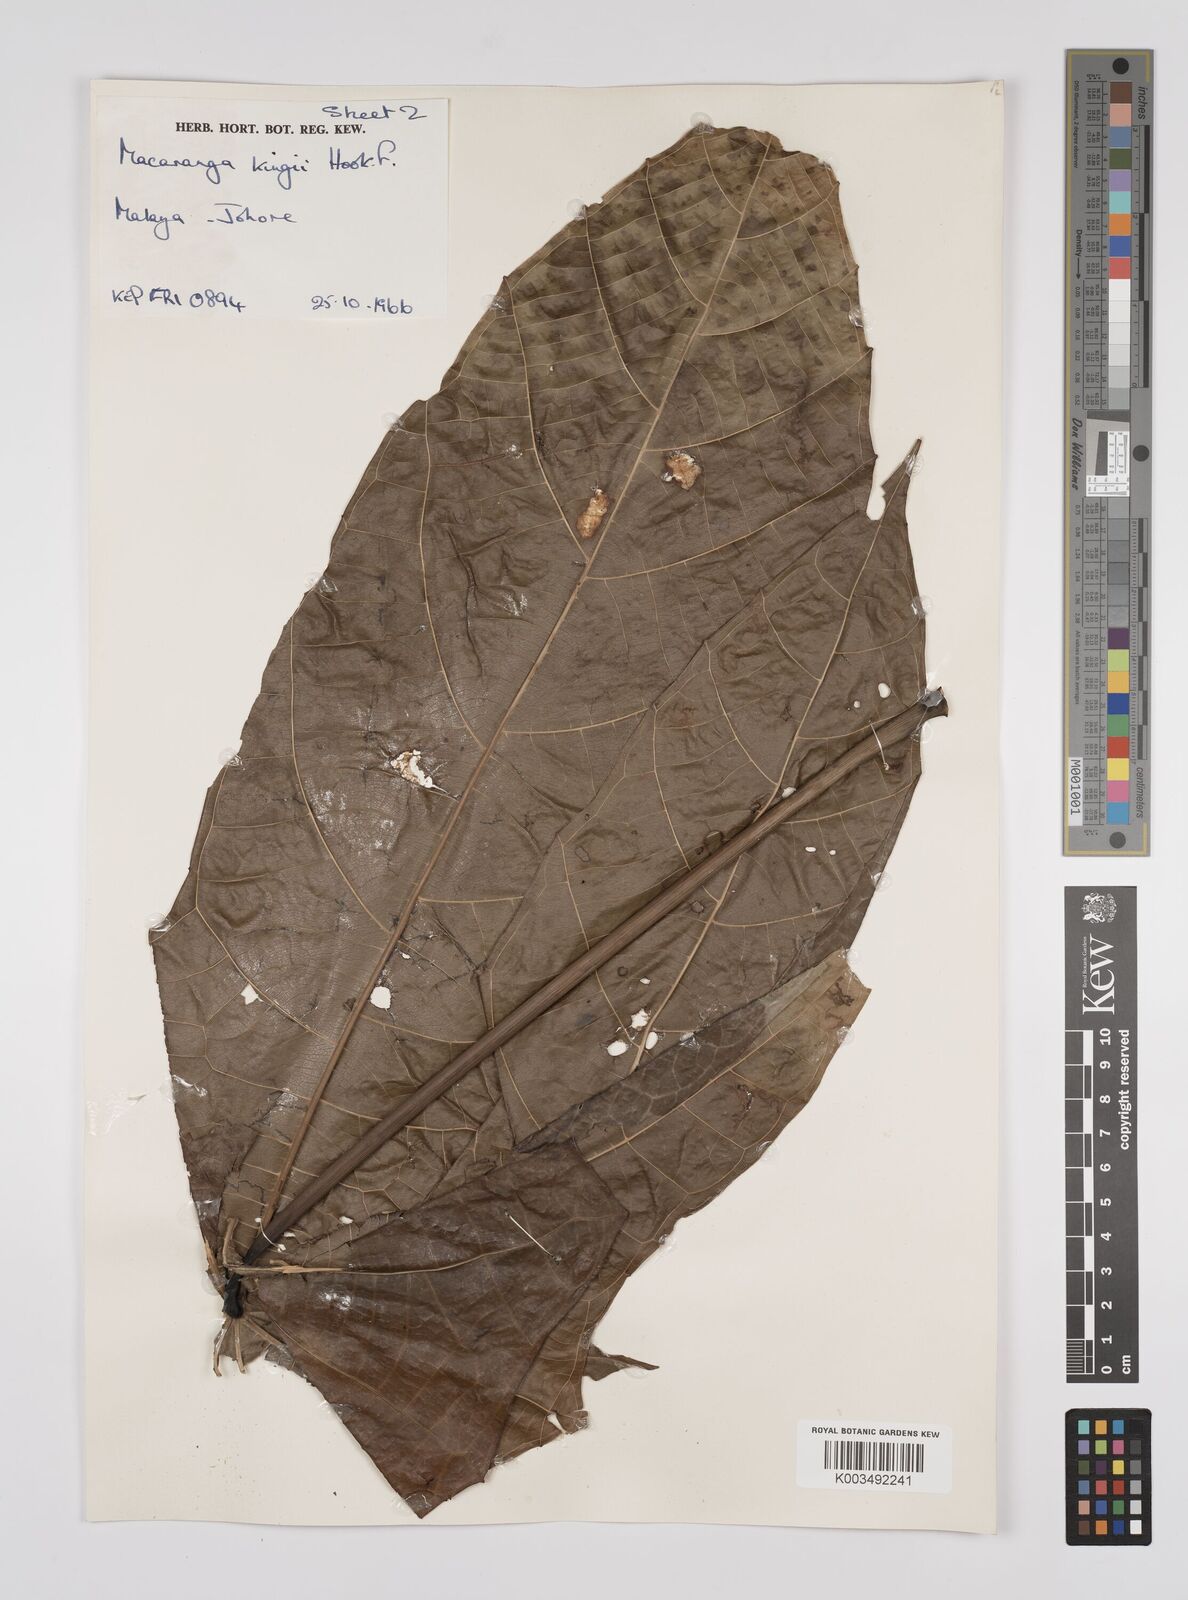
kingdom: Plantae
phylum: Tracheophyta
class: Magnoliopsida
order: Malpighiales
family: Euphorbiaceae
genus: Macaranga
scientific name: Macaranga kingii
